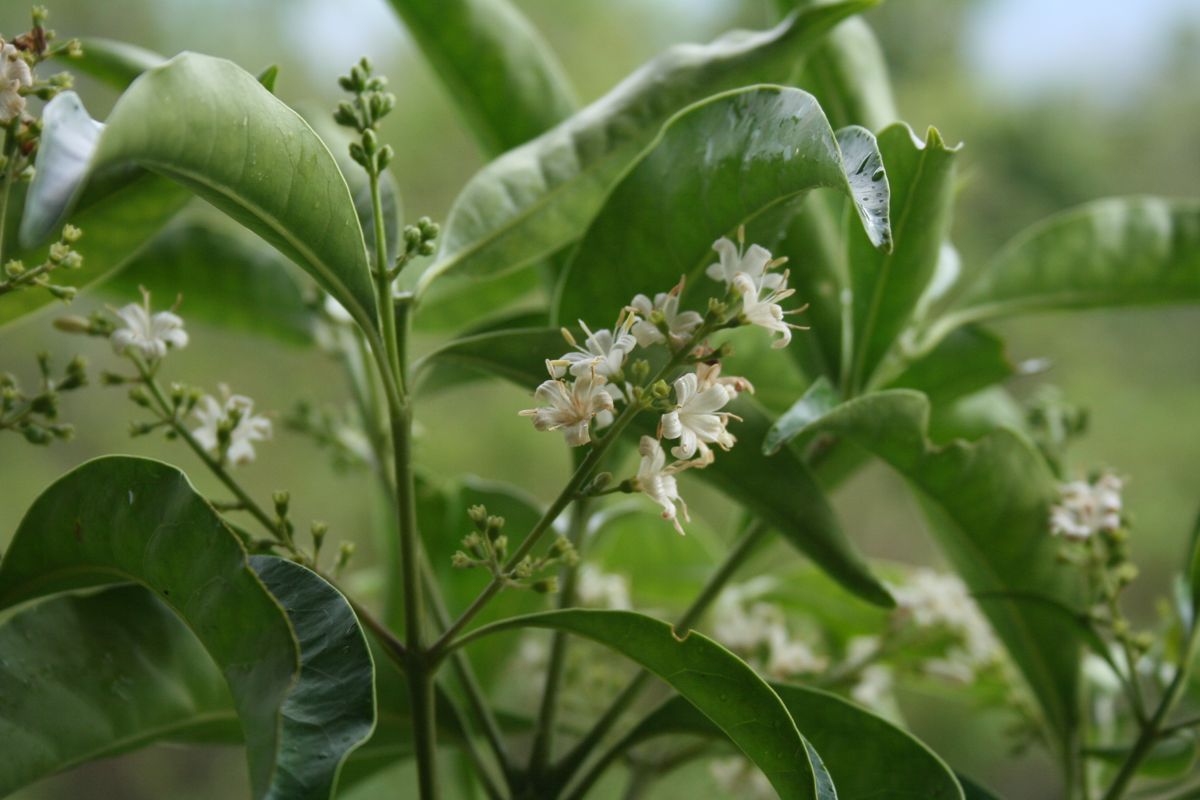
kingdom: Plantae
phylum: Tracheophyta
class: Magnoliopsida
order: Gentianales
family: Rubiaceae
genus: Chiococca
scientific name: Chiococca pachyphylla
